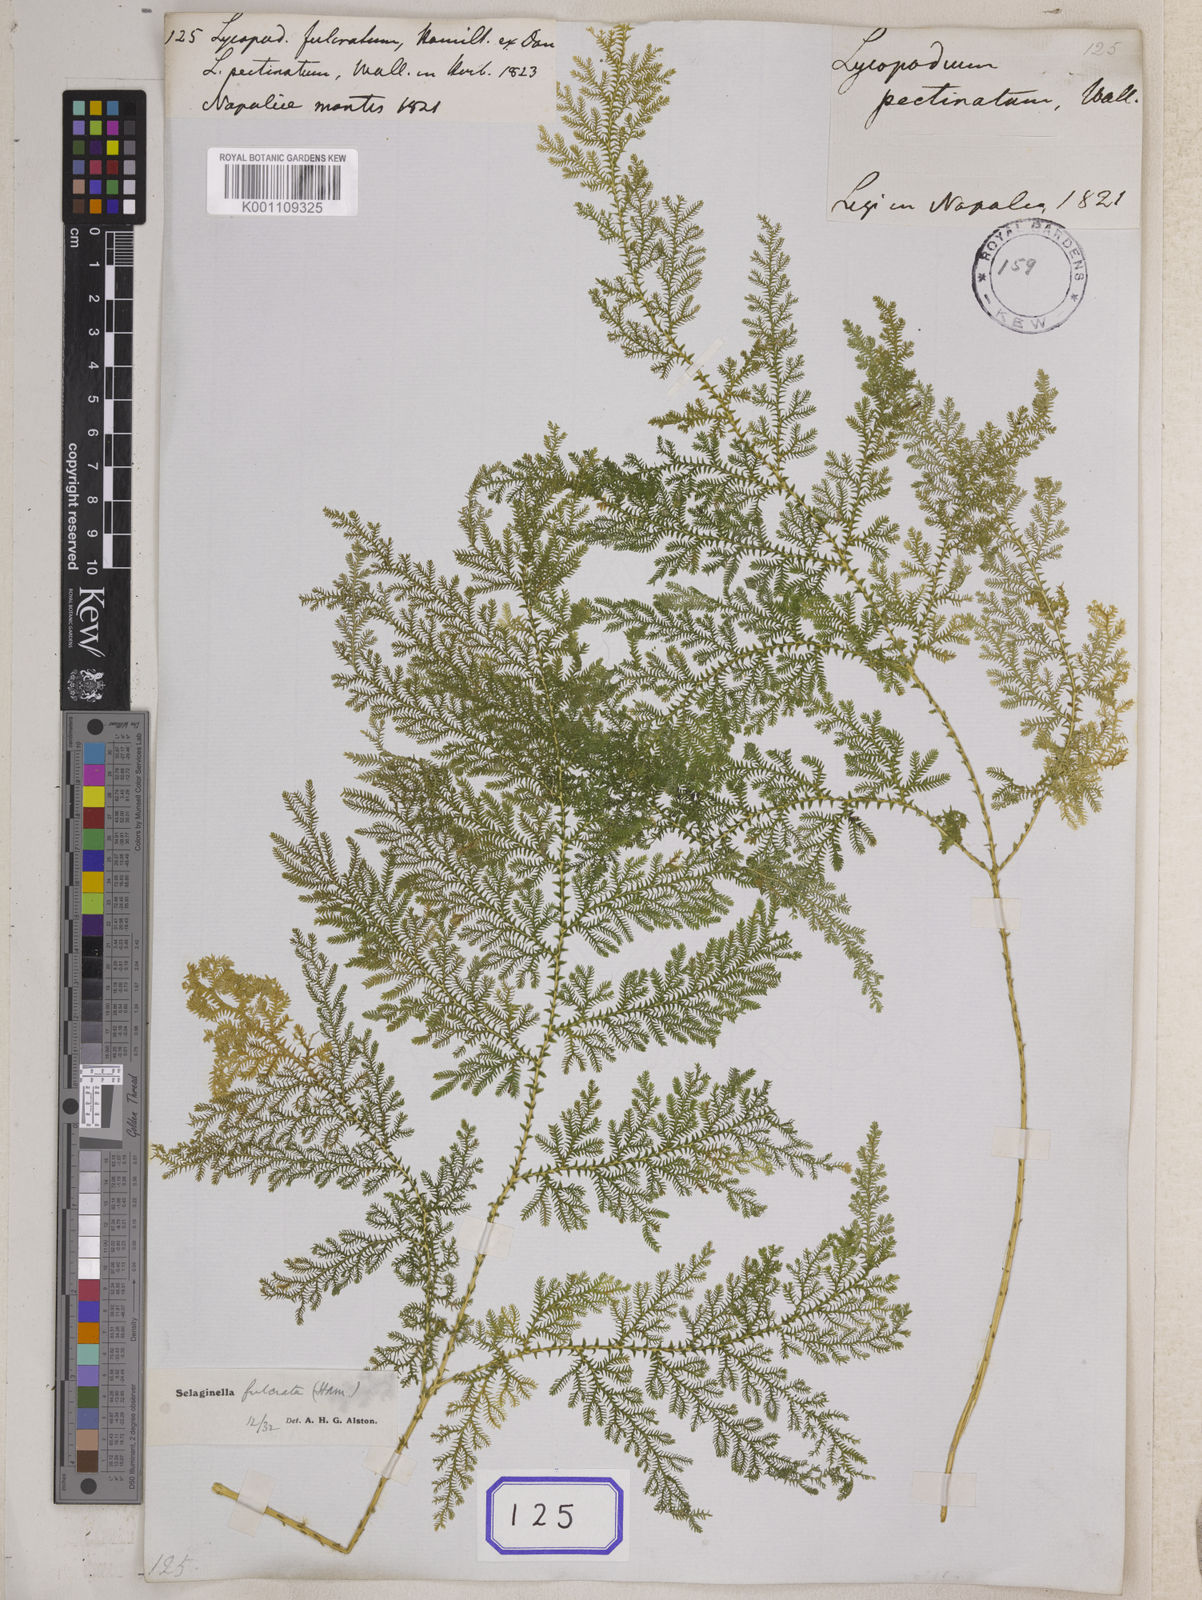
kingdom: Plantae
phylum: Tracheophyta
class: Lycopodiopsida
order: Selaginellales
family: Selaginellaceae
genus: Selaginella
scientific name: Selaginella fulcrata
